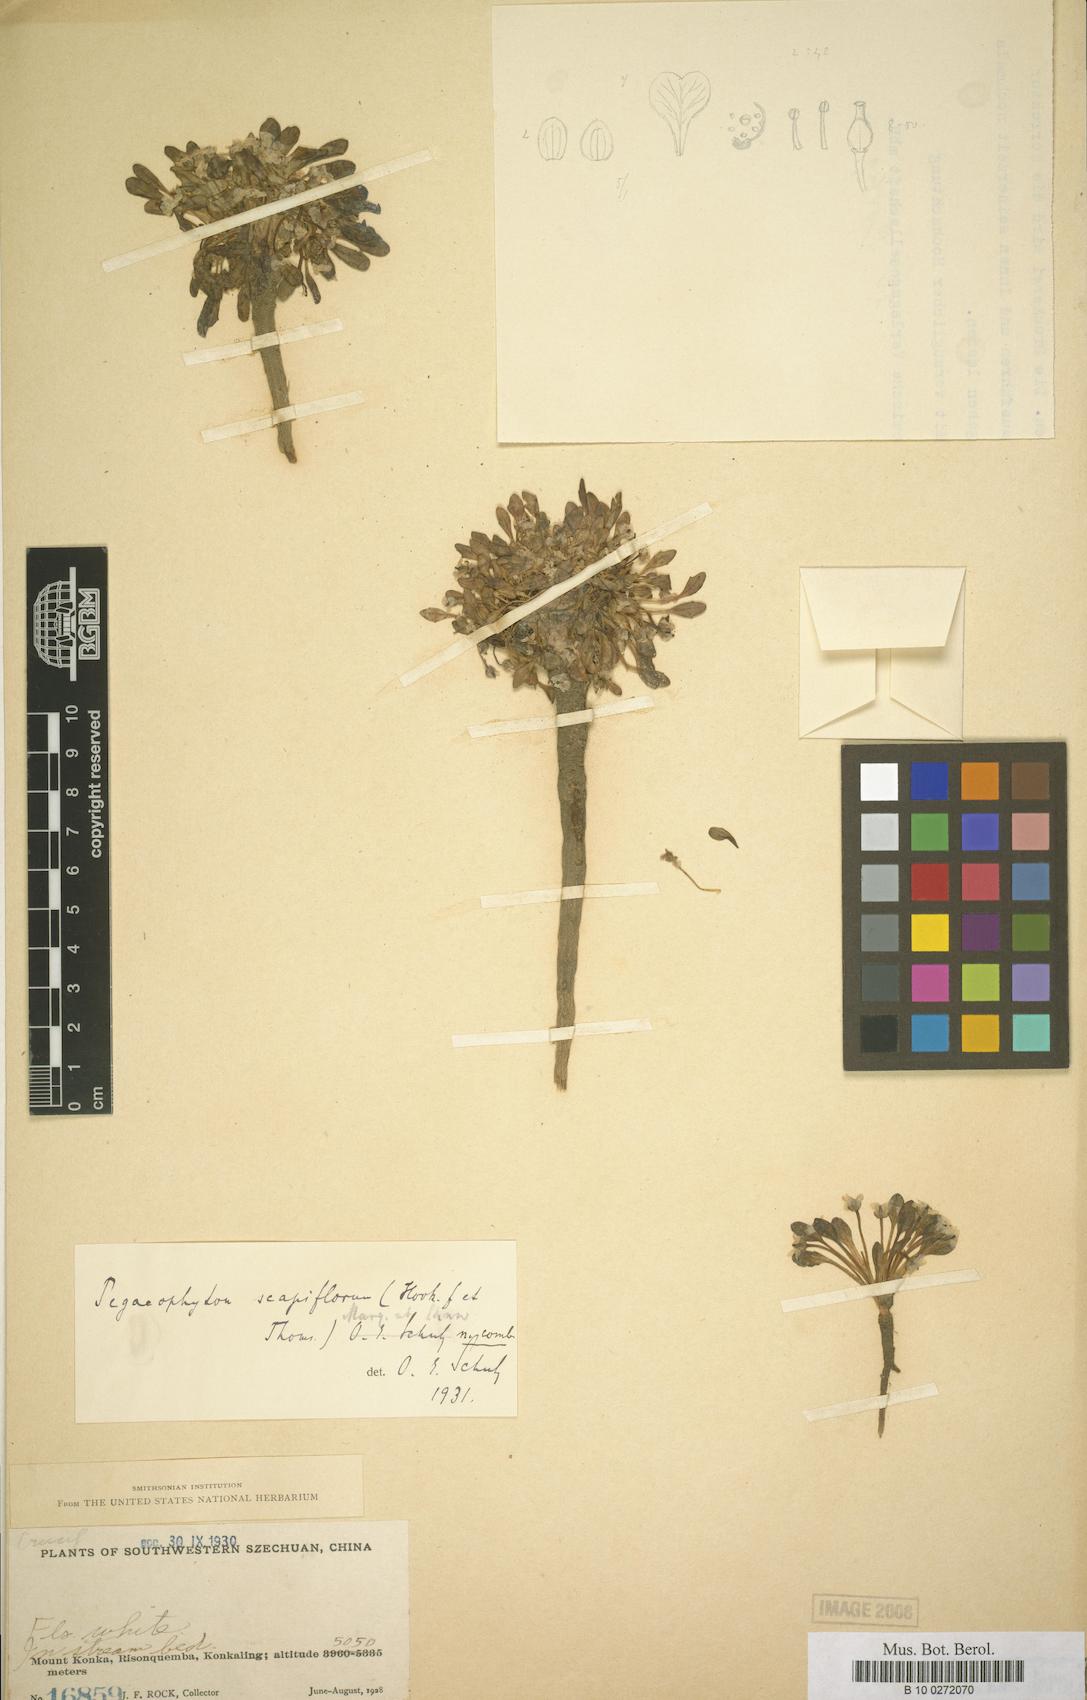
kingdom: Plantae
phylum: Tracheophyta
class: Magnoliopsida
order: Brassicales
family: Brassicaceae
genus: Eutrema
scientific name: Eutrema scapiflorum
